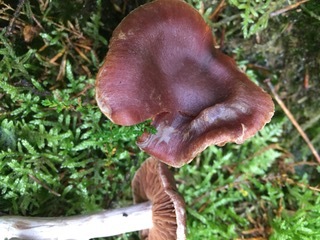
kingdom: Fungi
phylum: Basidiomycota
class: Agaricomycetes
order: Agaricales
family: Cortinariaceae
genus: Cortinarius
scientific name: Cortinarius
